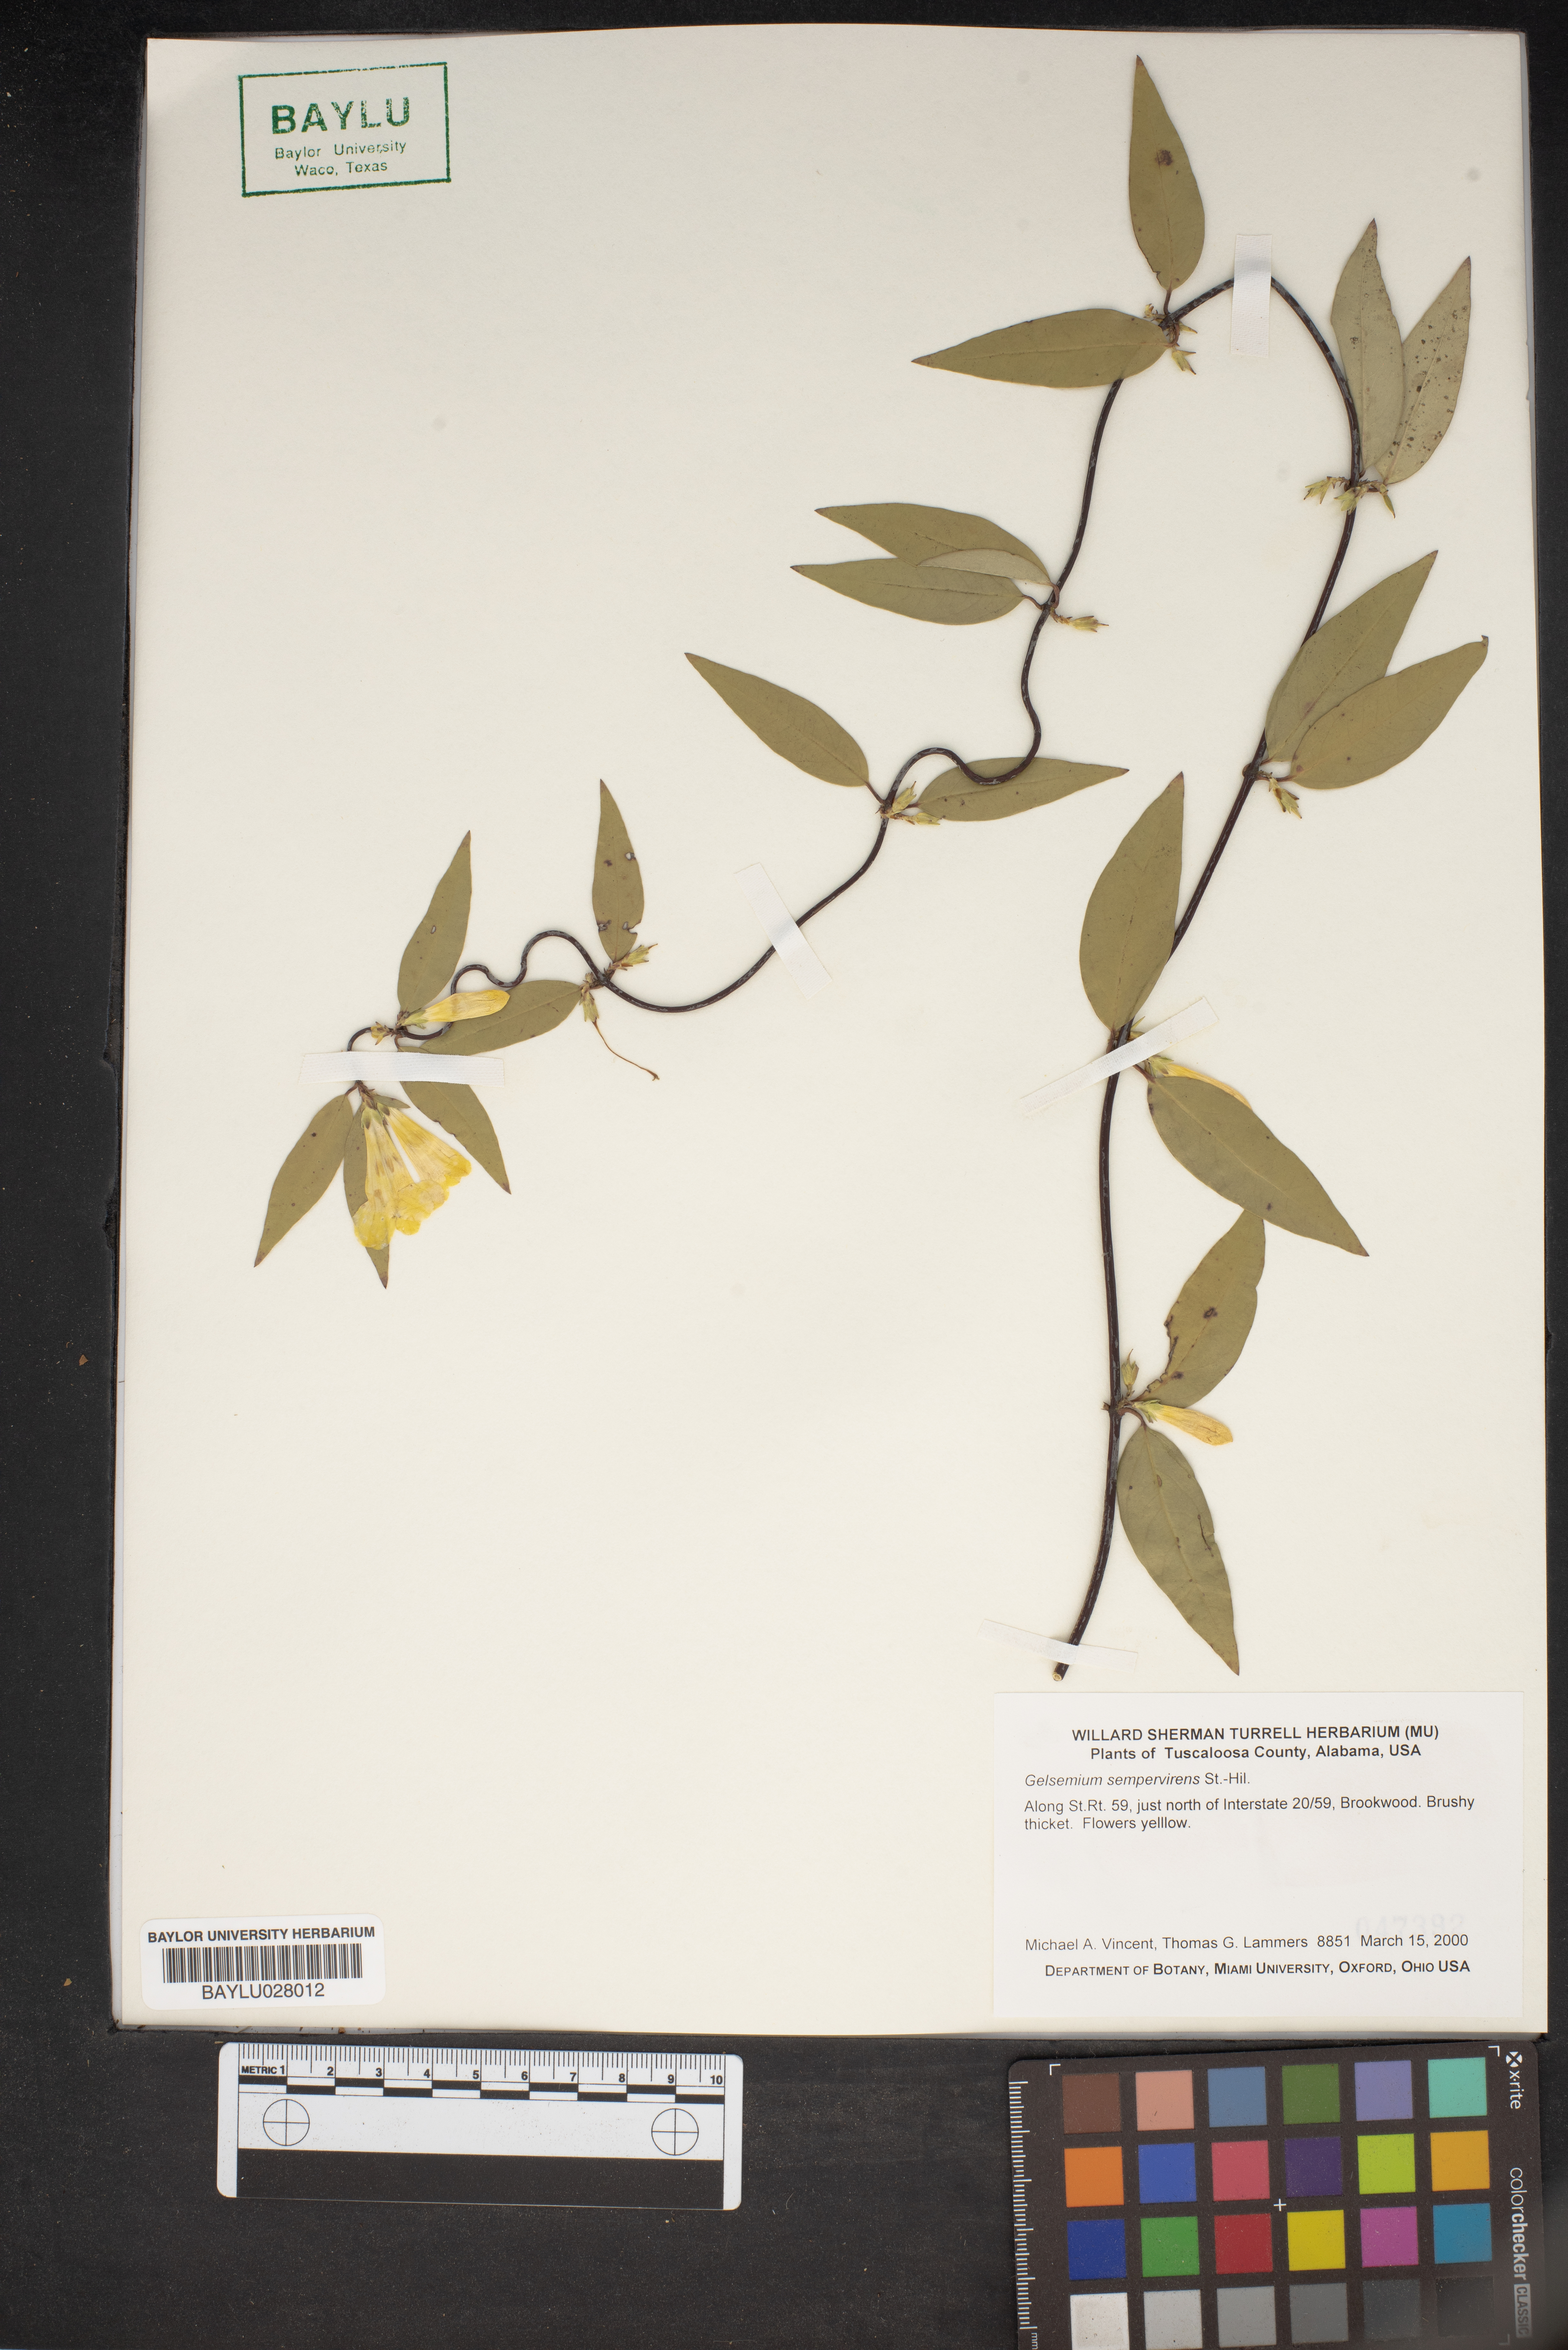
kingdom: Plantae
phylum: Tracheophyta
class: Magnoliopsida
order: Gentianales
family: Gelsemiaceae
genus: Gelsemium
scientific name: Gelsemium sempervirens
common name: Carolina-jasmine
